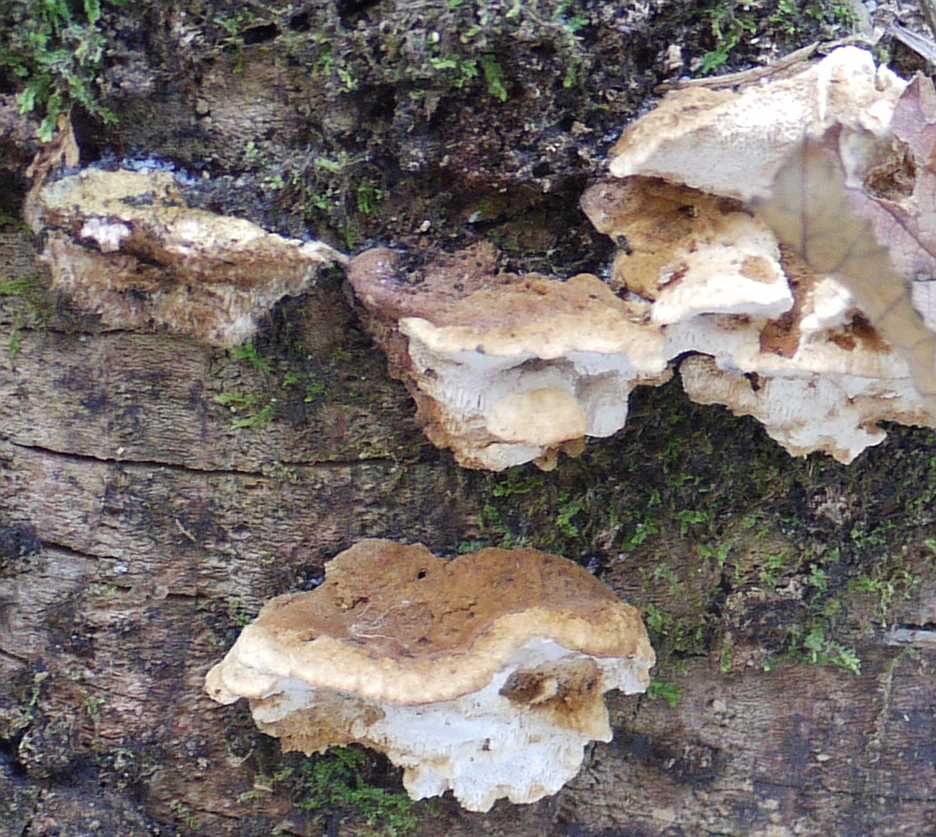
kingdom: Fungi
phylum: Basidiomycota
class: Agaricomycetes
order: Polyporales
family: Fomitopsidaceae
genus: Neoantrodia
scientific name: Neoantrodia serialis
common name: række-sejporesvamp
